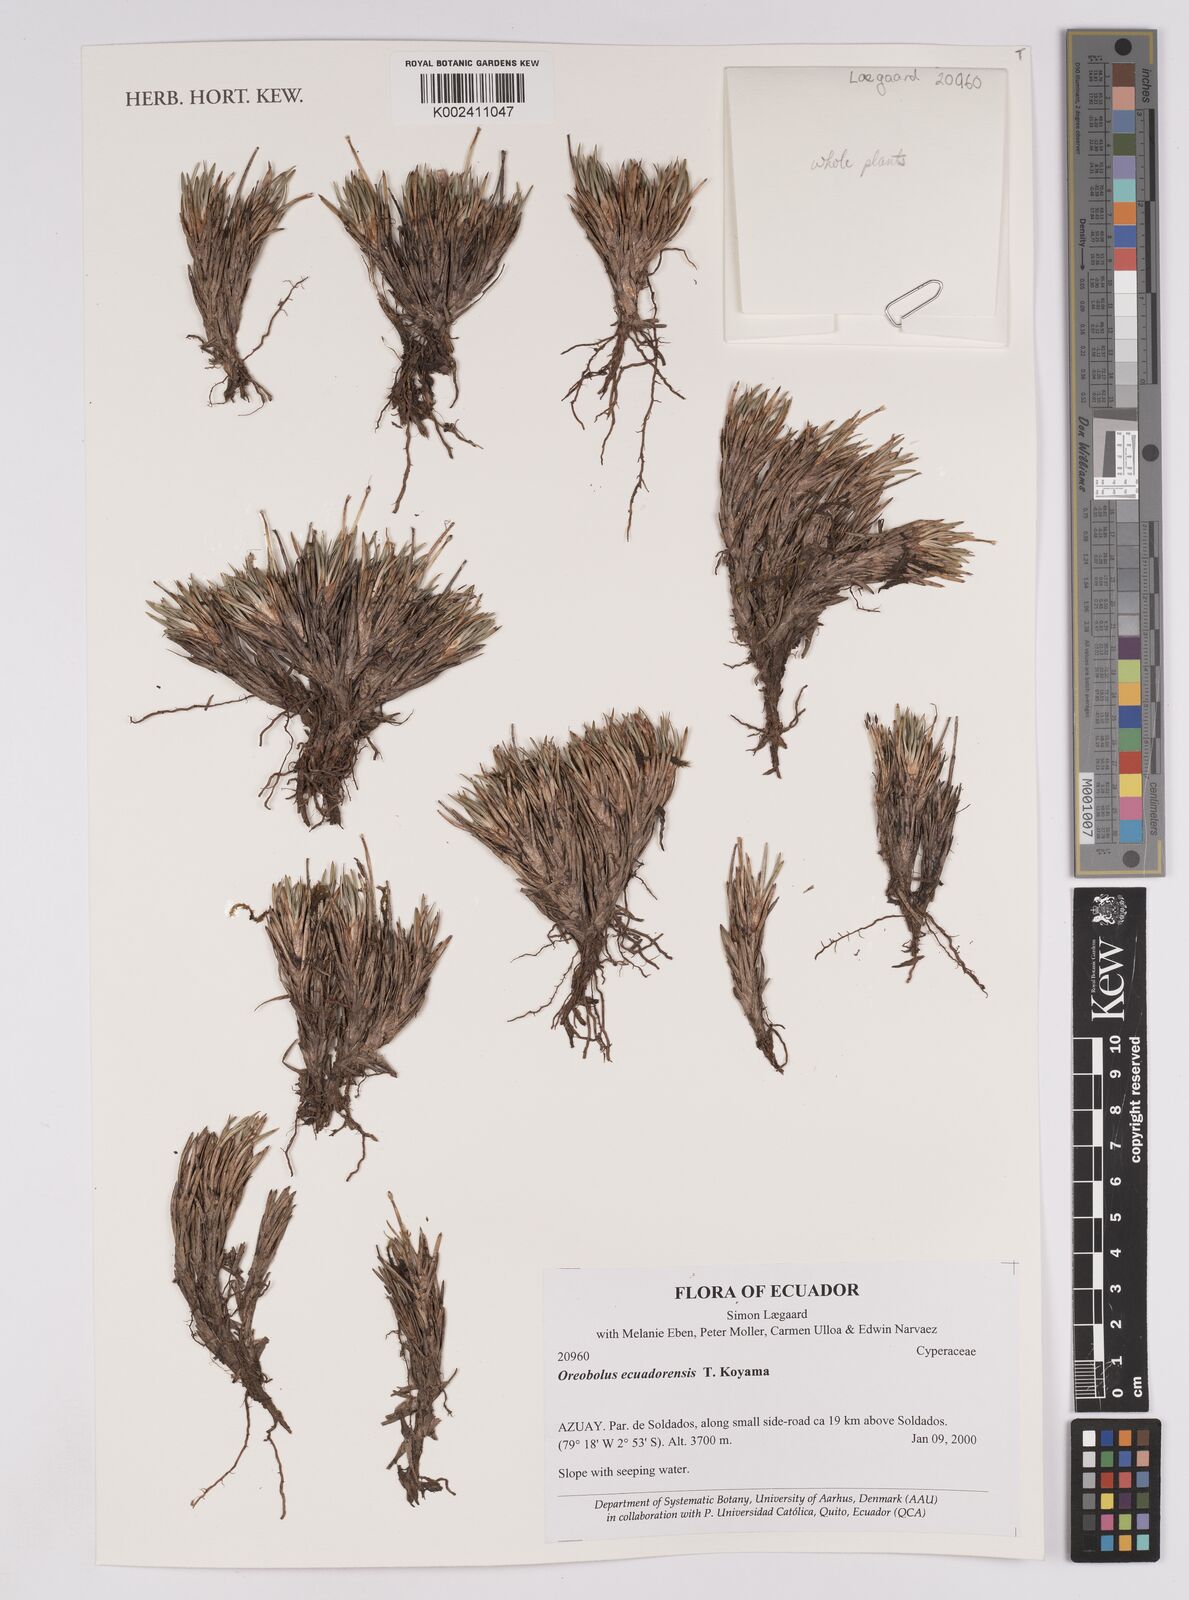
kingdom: Plantae
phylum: Tracheophyta
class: Liliopsida
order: Poales
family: Cyperaceae
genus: Oreobolus
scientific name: Oreobolus ecuadorensis
